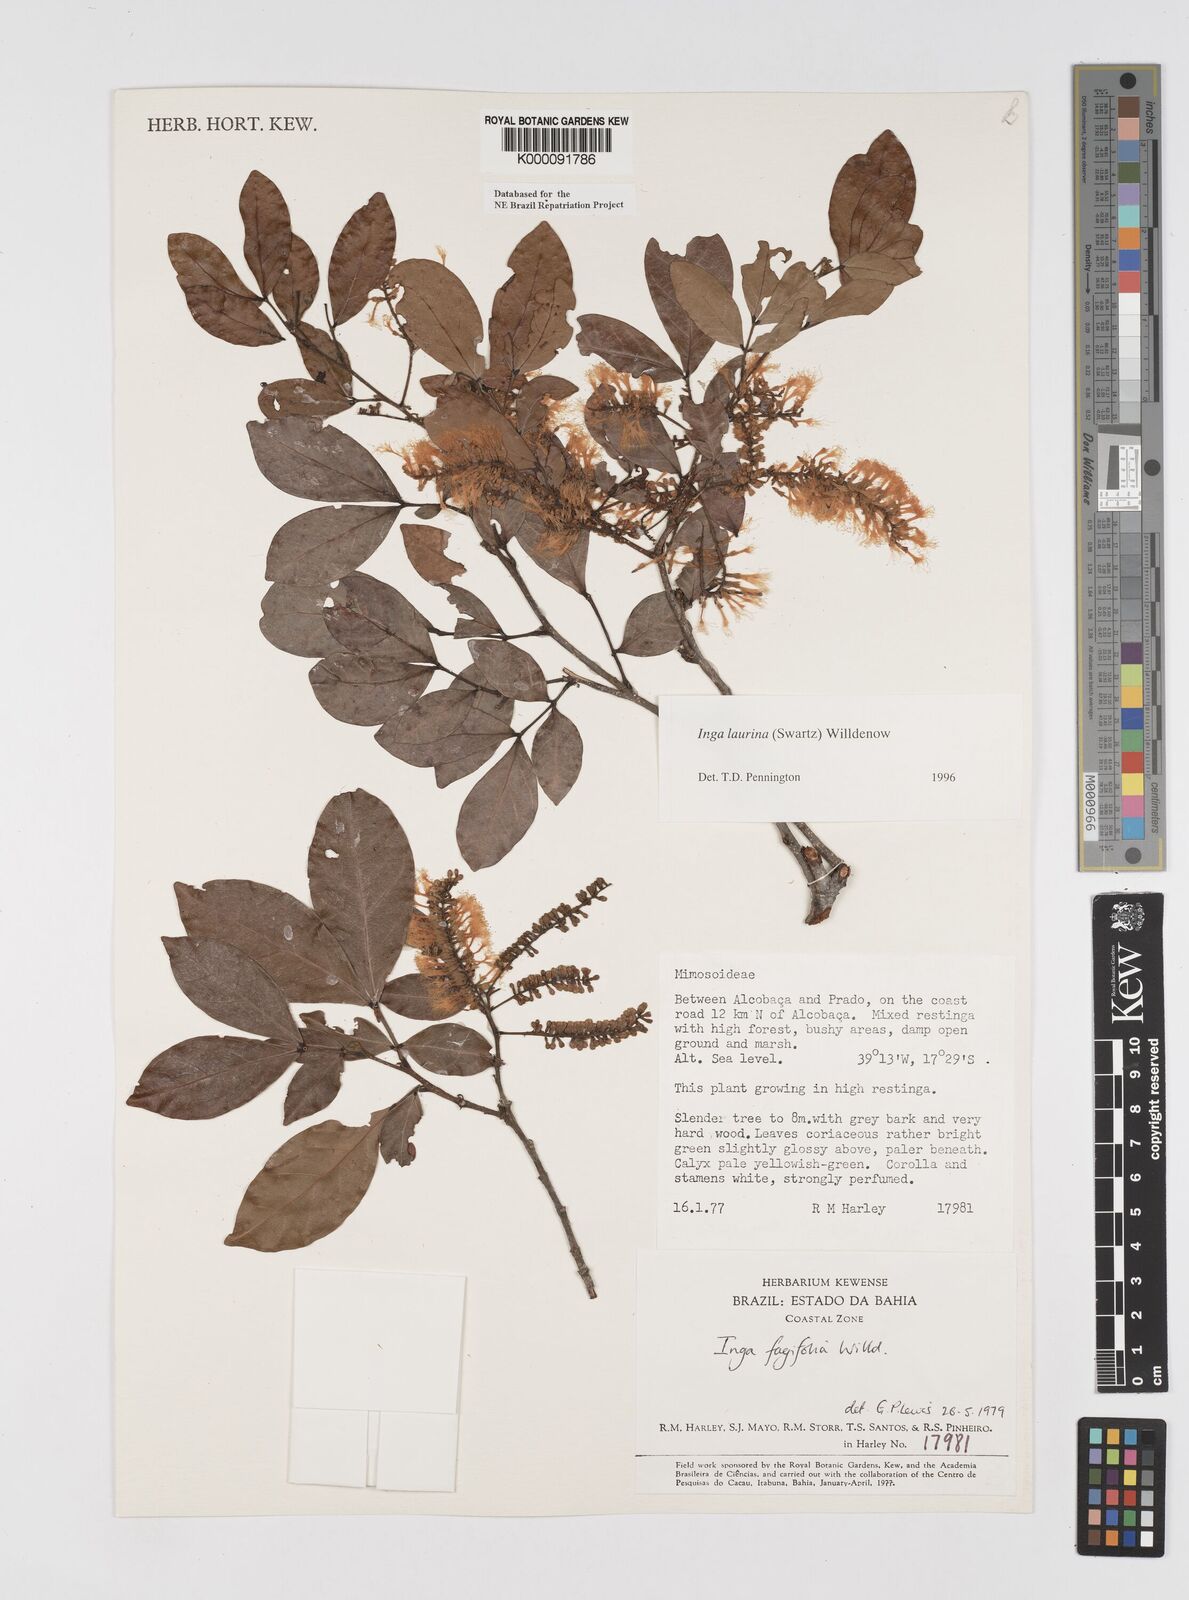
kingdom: Plantae
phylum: Tracheophyta
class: Magnoliopsida
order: Fabales
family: Fabaceae
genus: Inga
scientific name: Inga laurina
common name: Red wood
